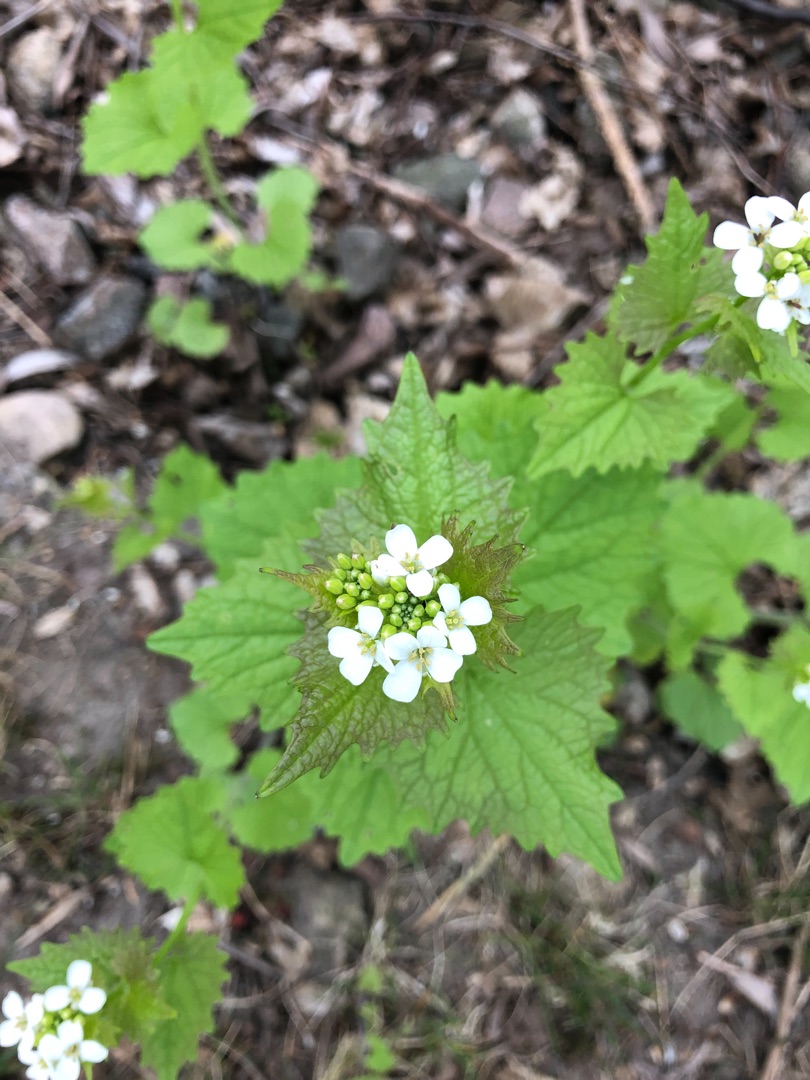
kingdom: Plantae
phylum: Tracheophyta
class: Magnoliopsida
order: Brassicales
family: Brassicaceae
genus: Alliaria
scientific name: Alliaria petiolata
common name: Løgkarse
